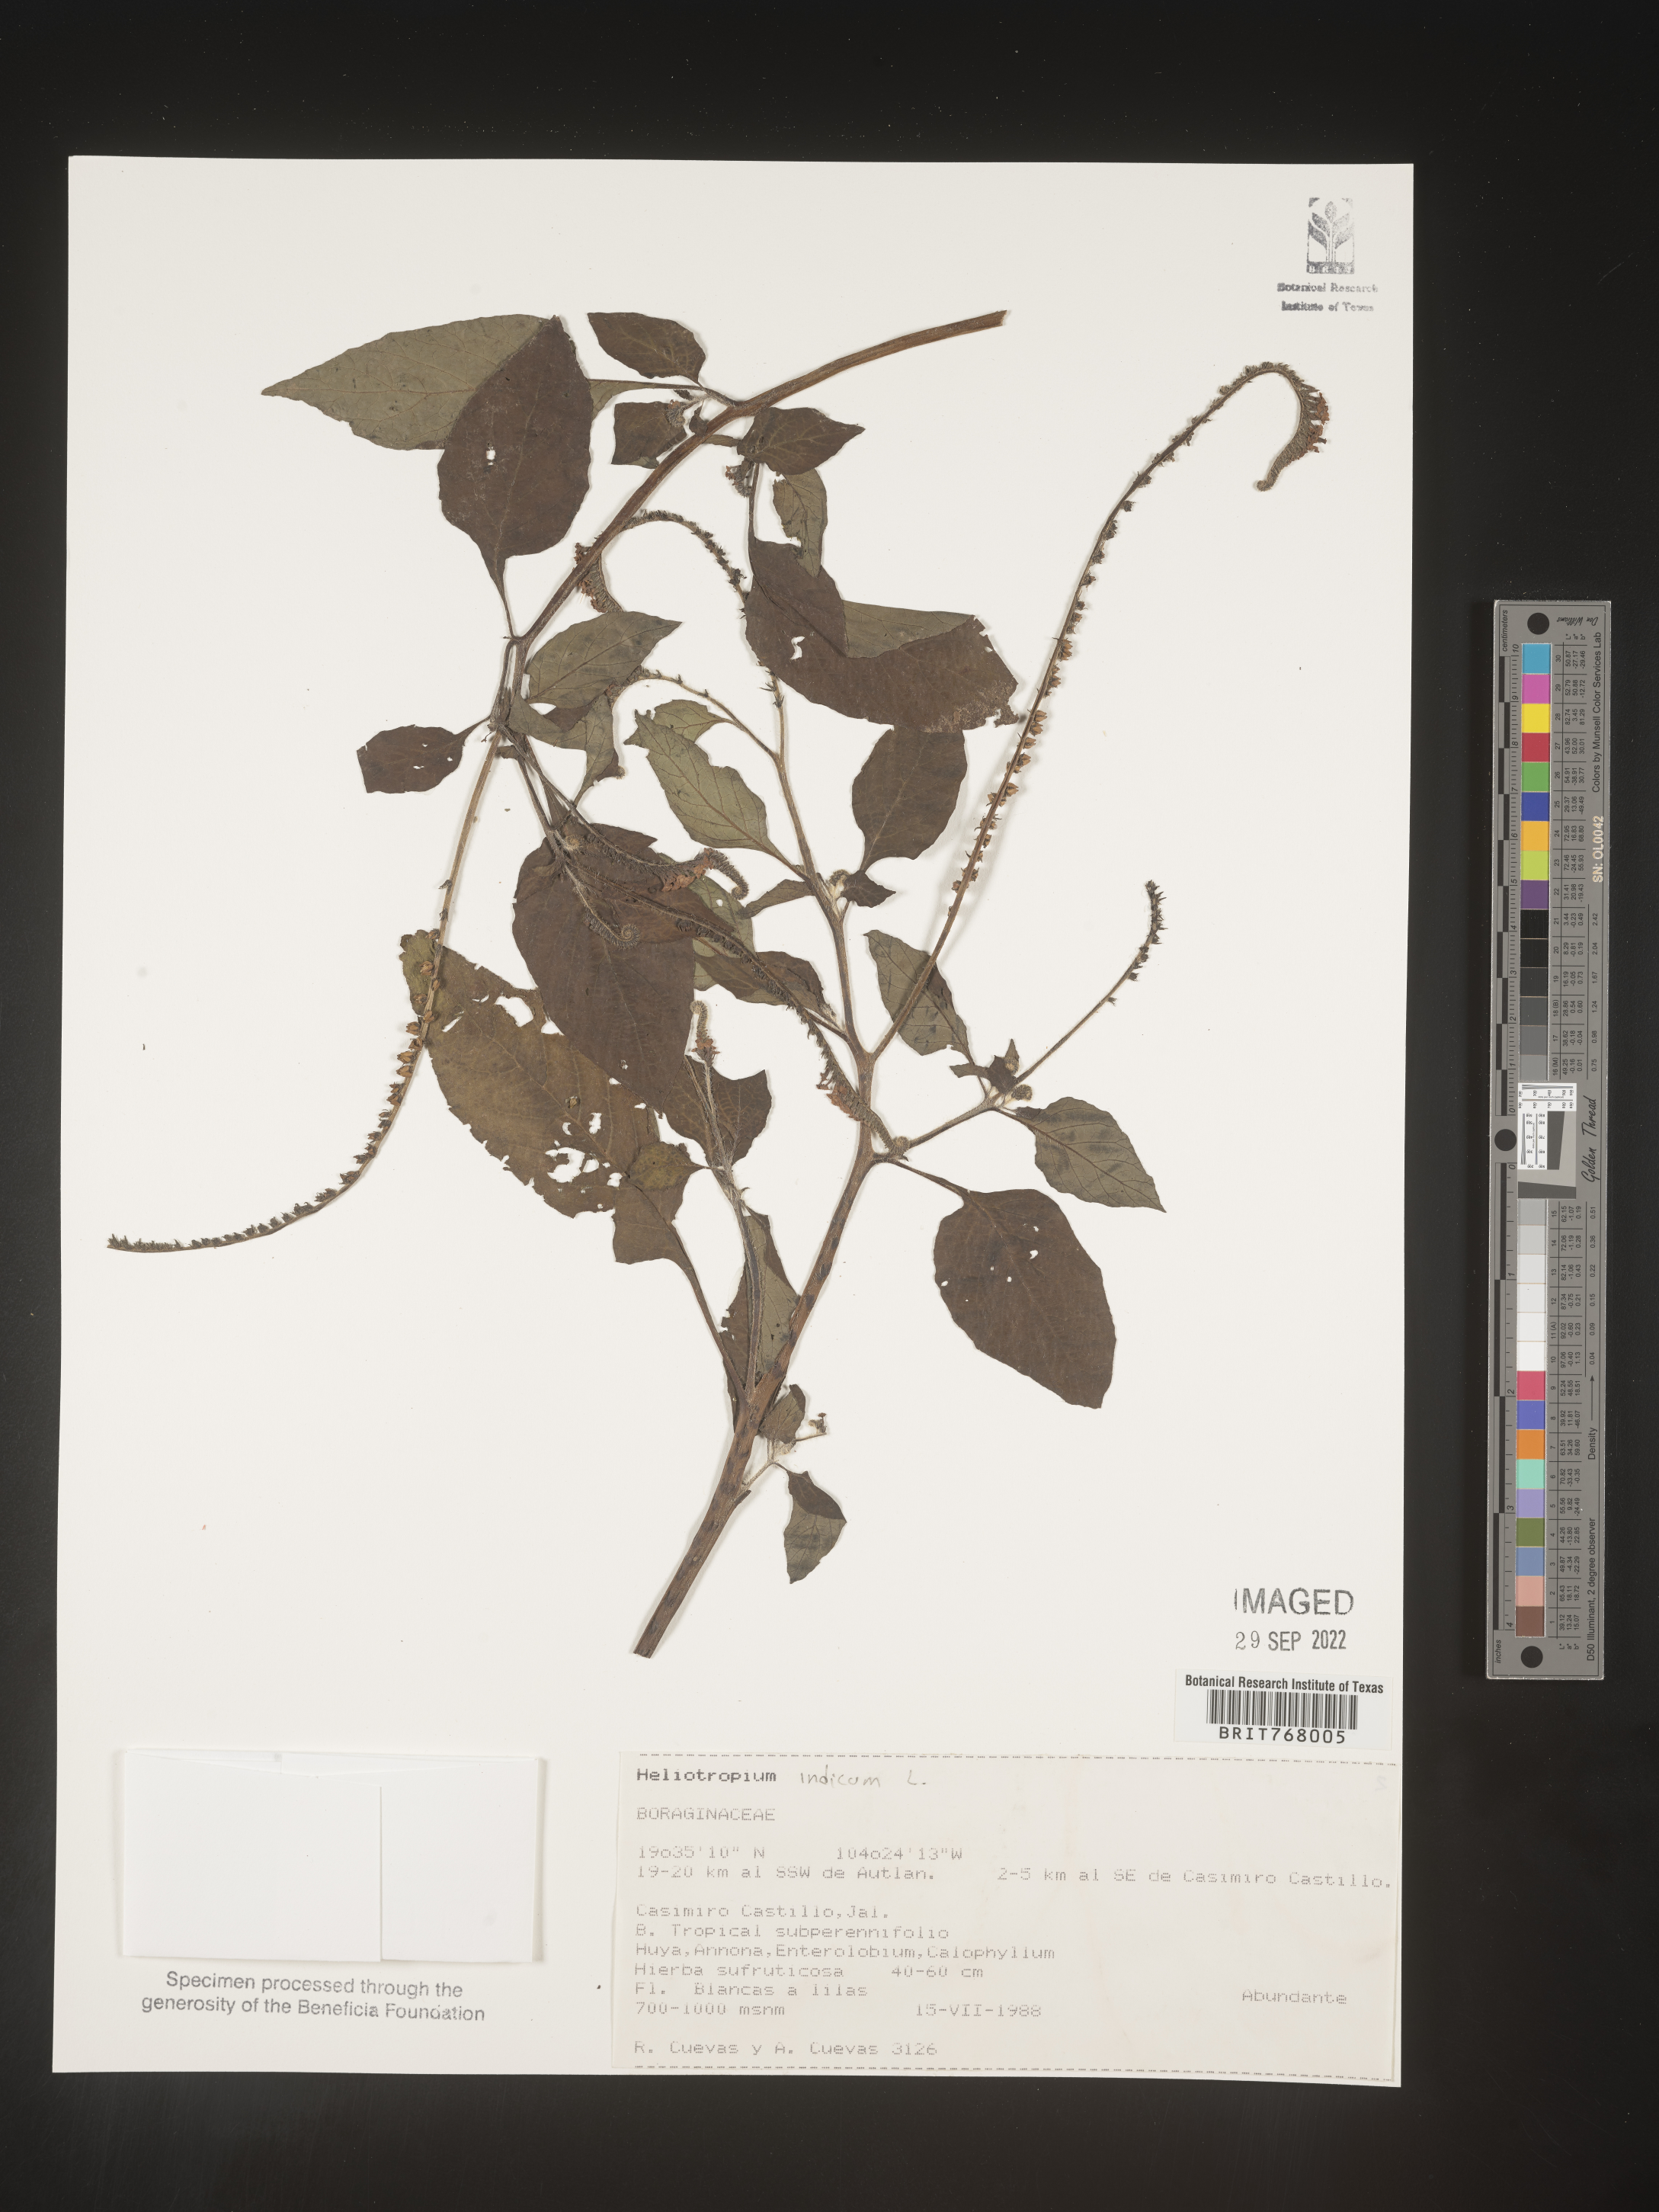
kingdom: Plantae
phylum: Tracheophyta
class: Magnoliopsida
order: Boraginales
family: Heliotropiaceae
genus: Heliotropium
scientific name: Heliotropium
